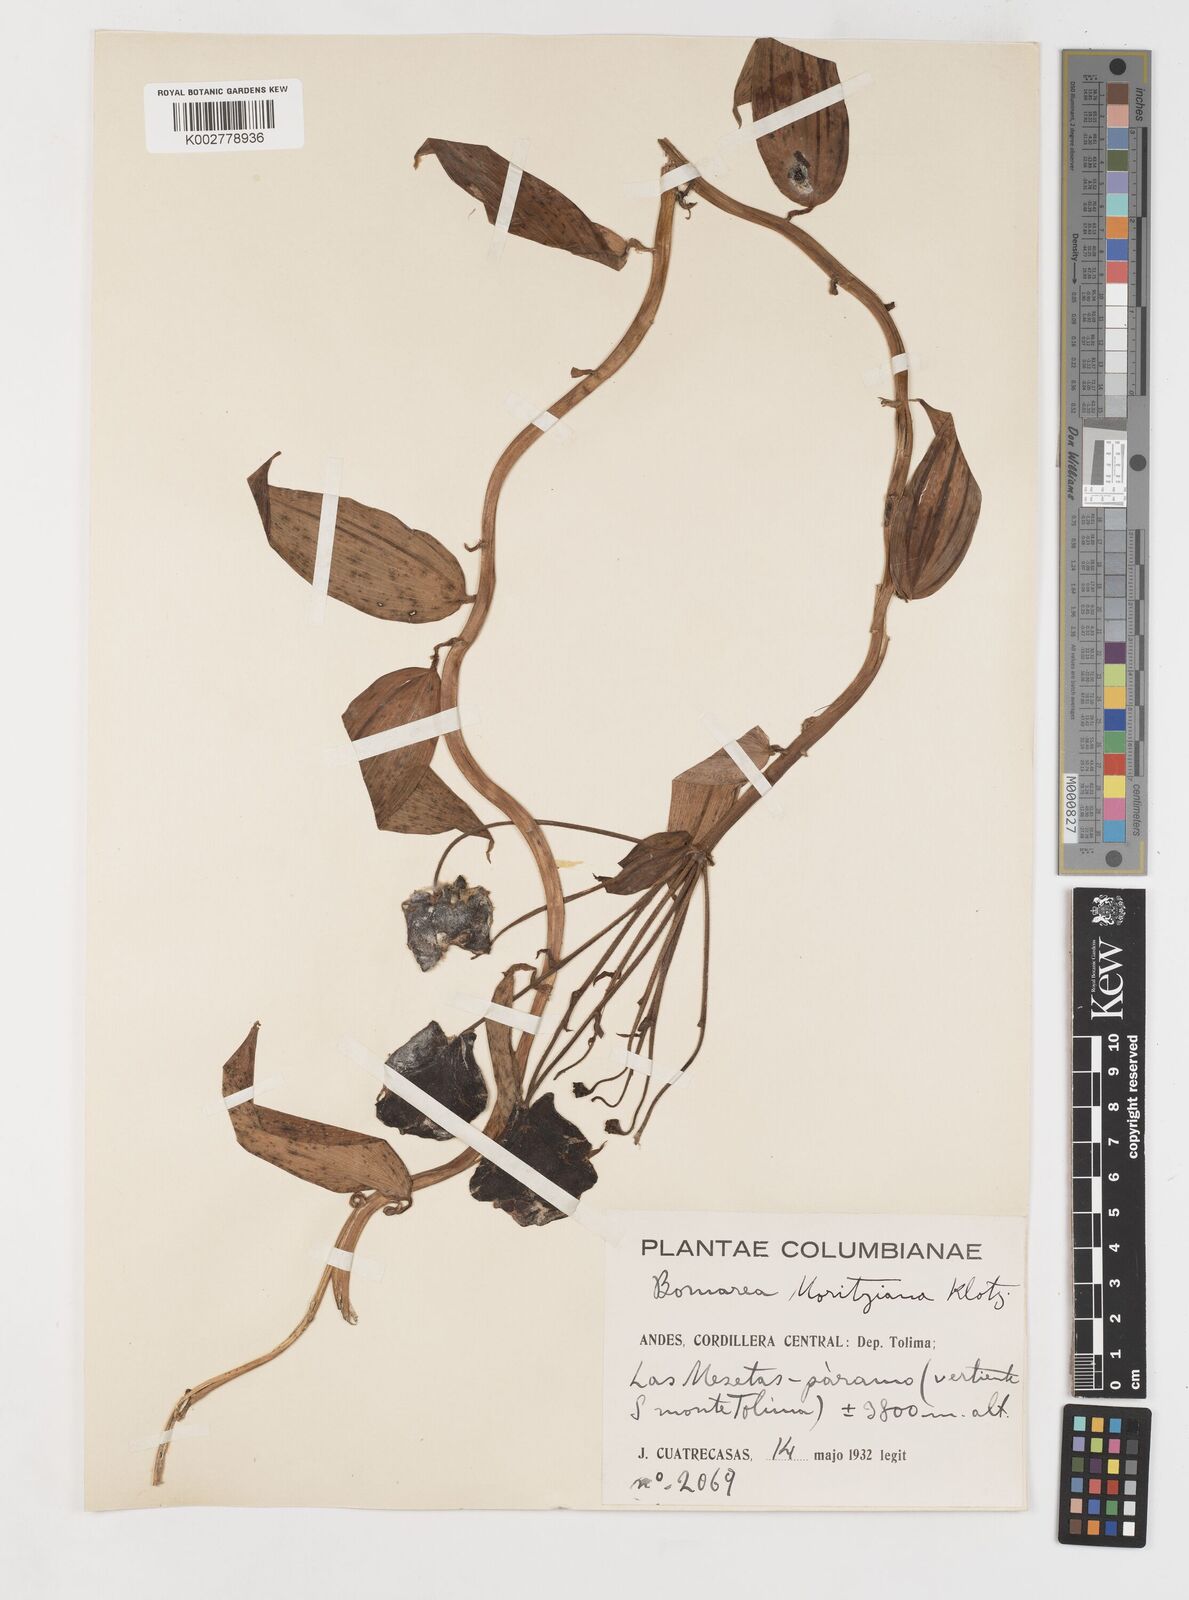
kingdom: Plantae
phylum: Tracheophyta
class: Liliopsida
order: Liliales
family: Alstroemeriaceae
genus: Bomarea
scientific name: Bomarea moritziana
